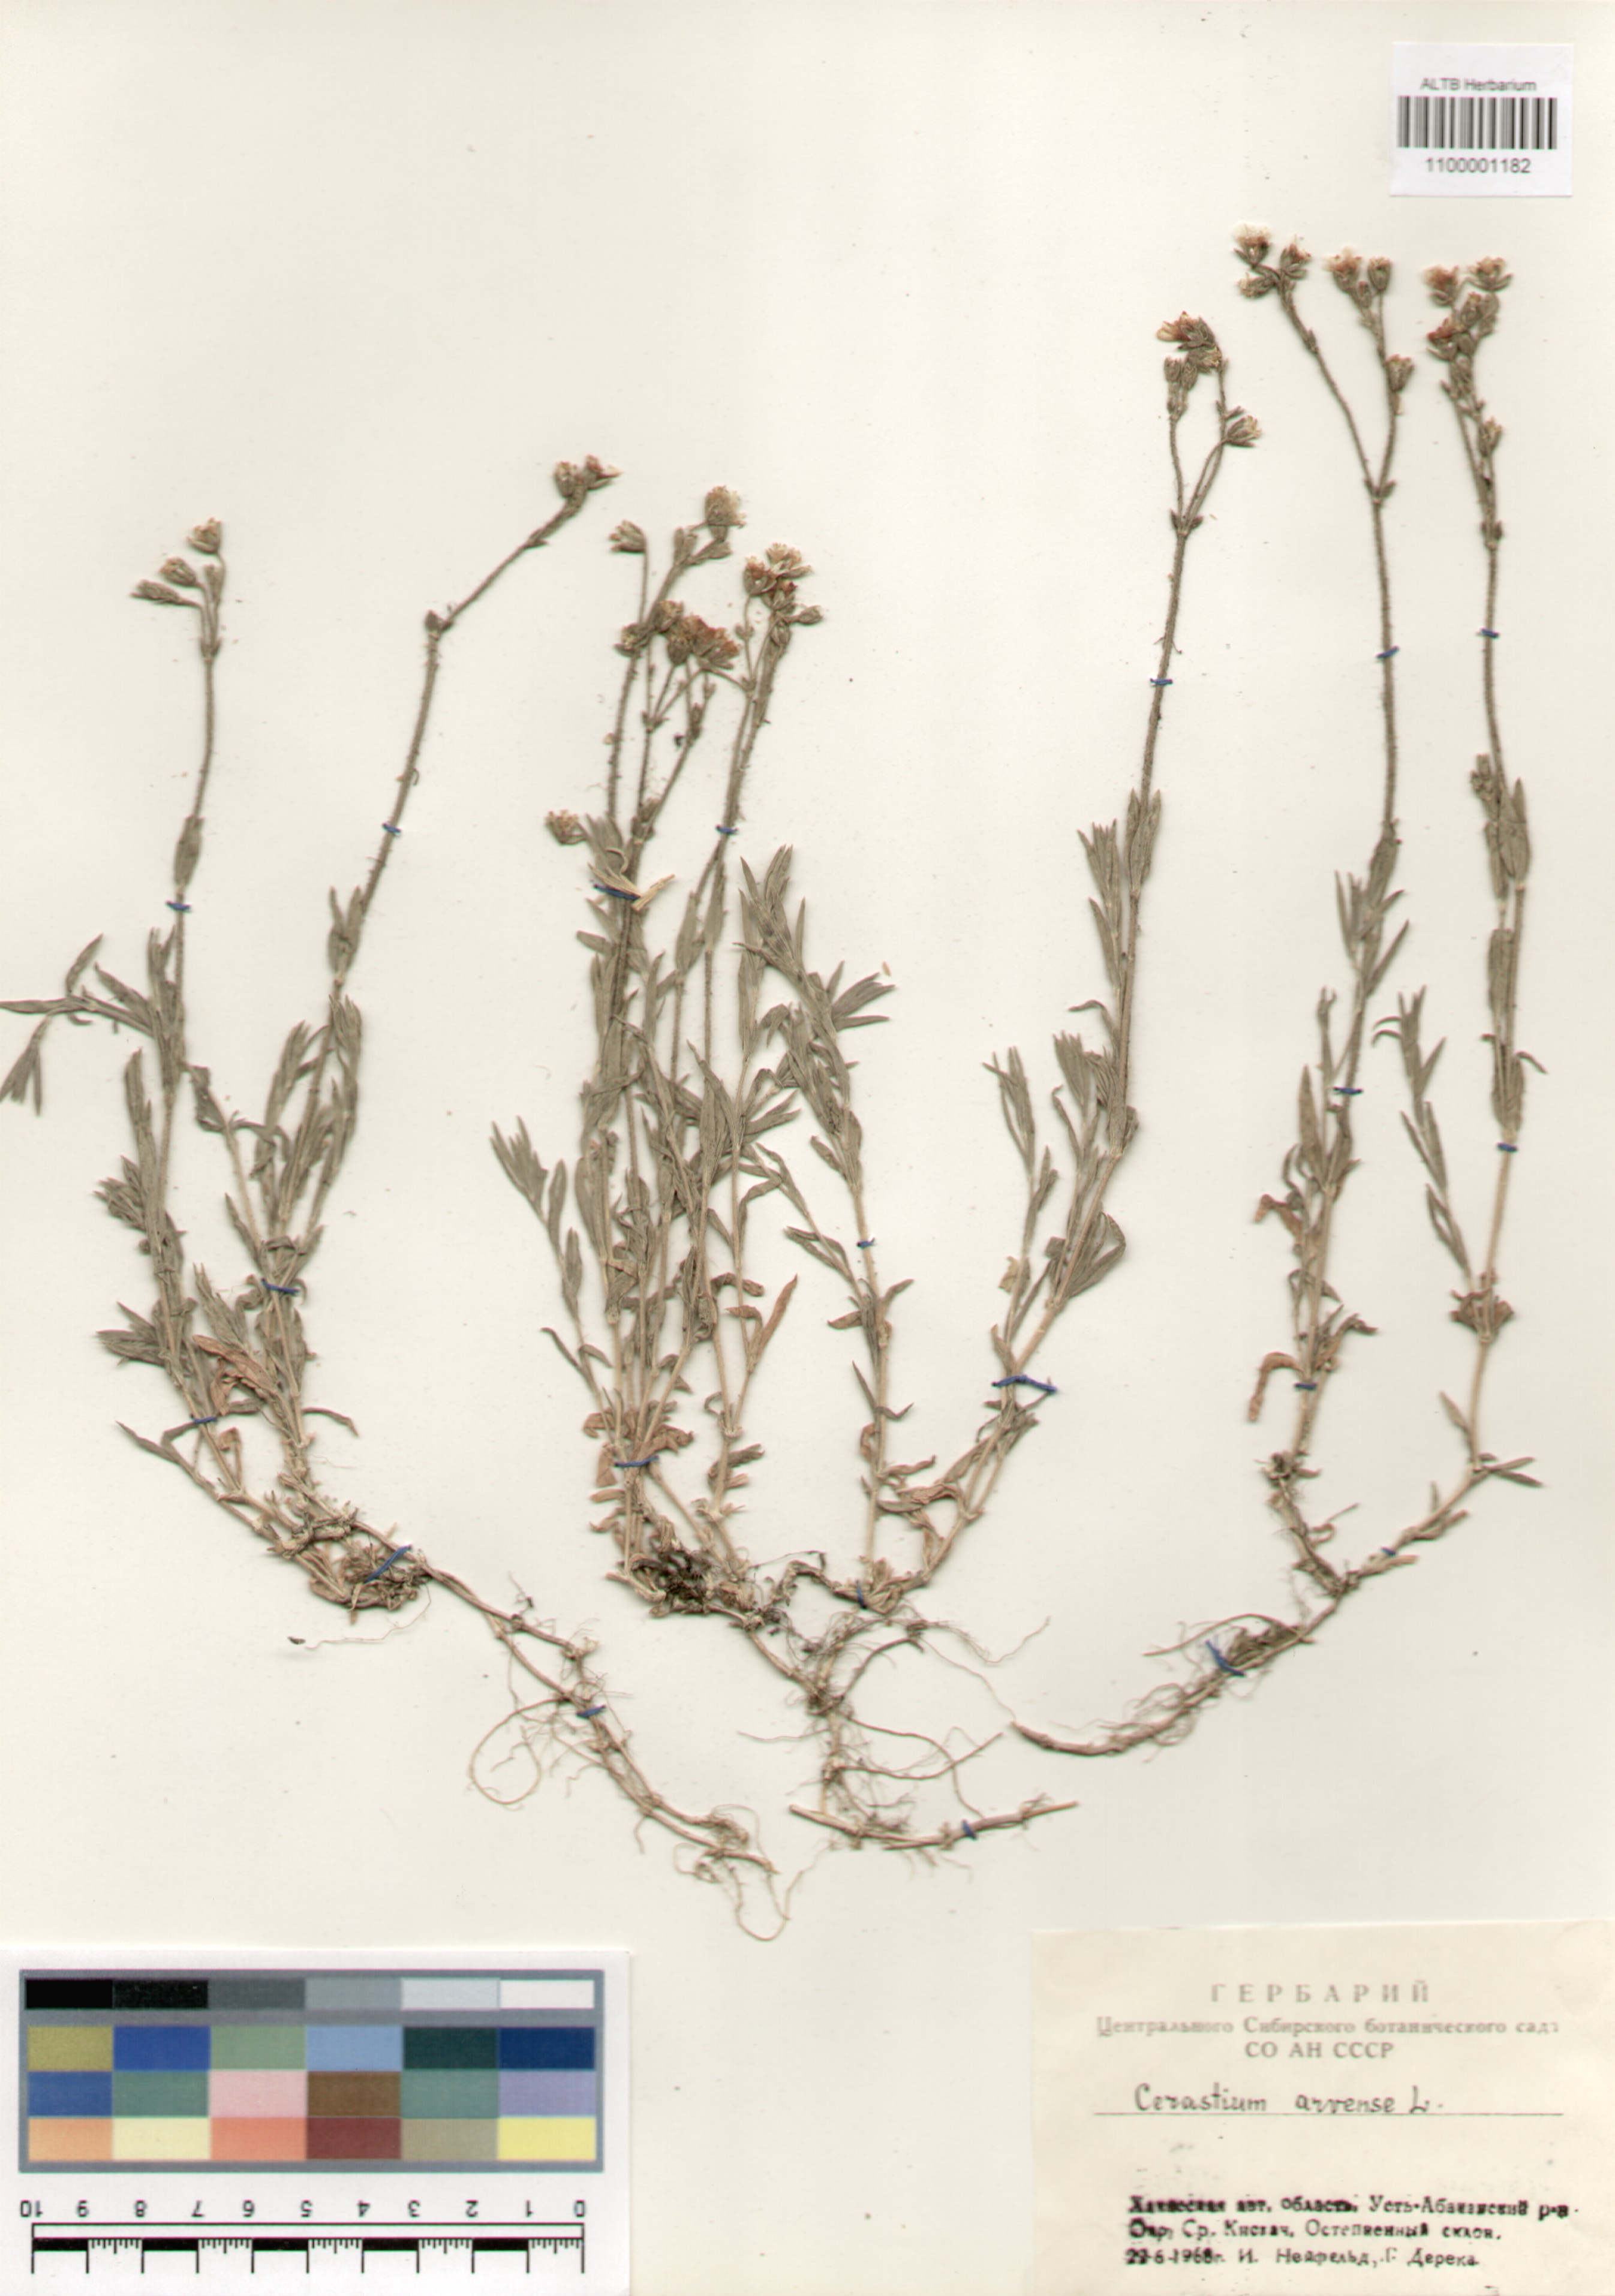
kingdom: Plantae
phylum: Tracheophyta
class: Magnoliopsida
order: Caryophyllales
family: Caryophyllaceae
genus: Cerastium
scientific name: Cerastium arvense
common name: Field mouse-ear
